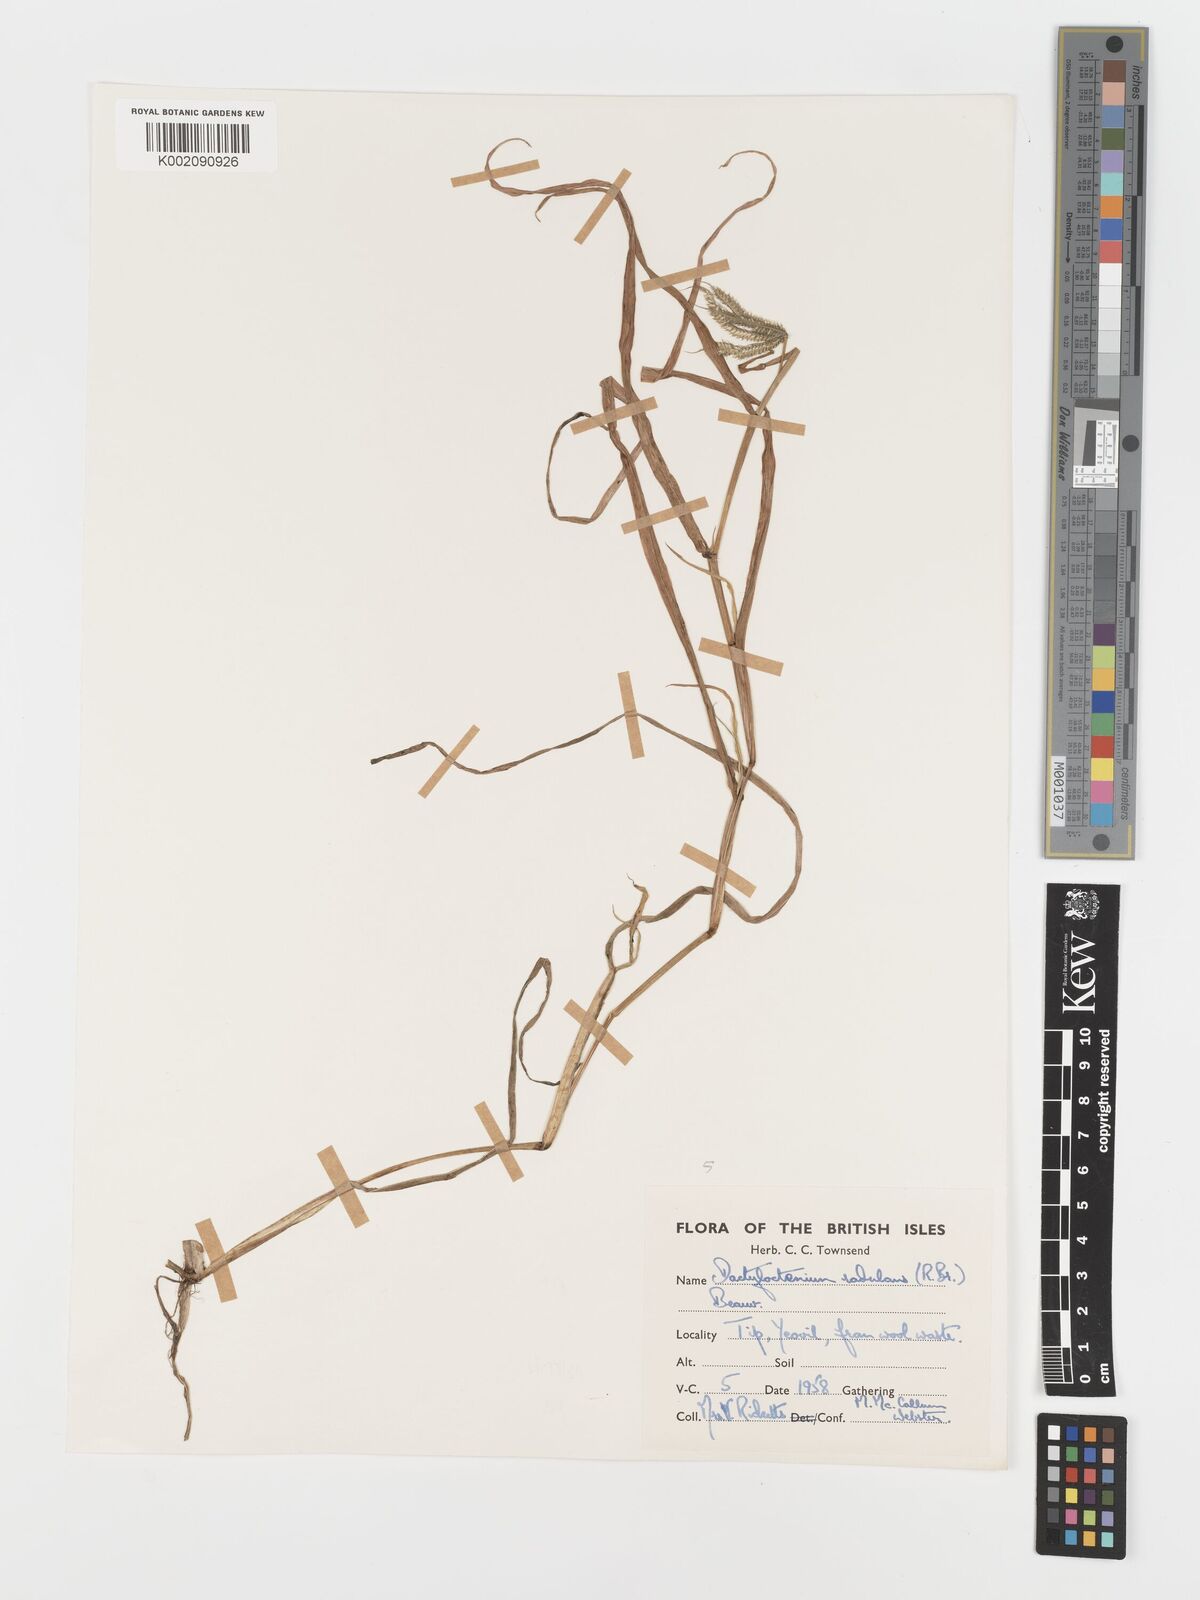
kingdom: Plantae
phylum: Tracheophyta
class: Liliopsida
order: Poales
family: Poaceae
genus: Dactyloctenium
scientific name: Dactyloctenium radulans
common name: Button-grass
